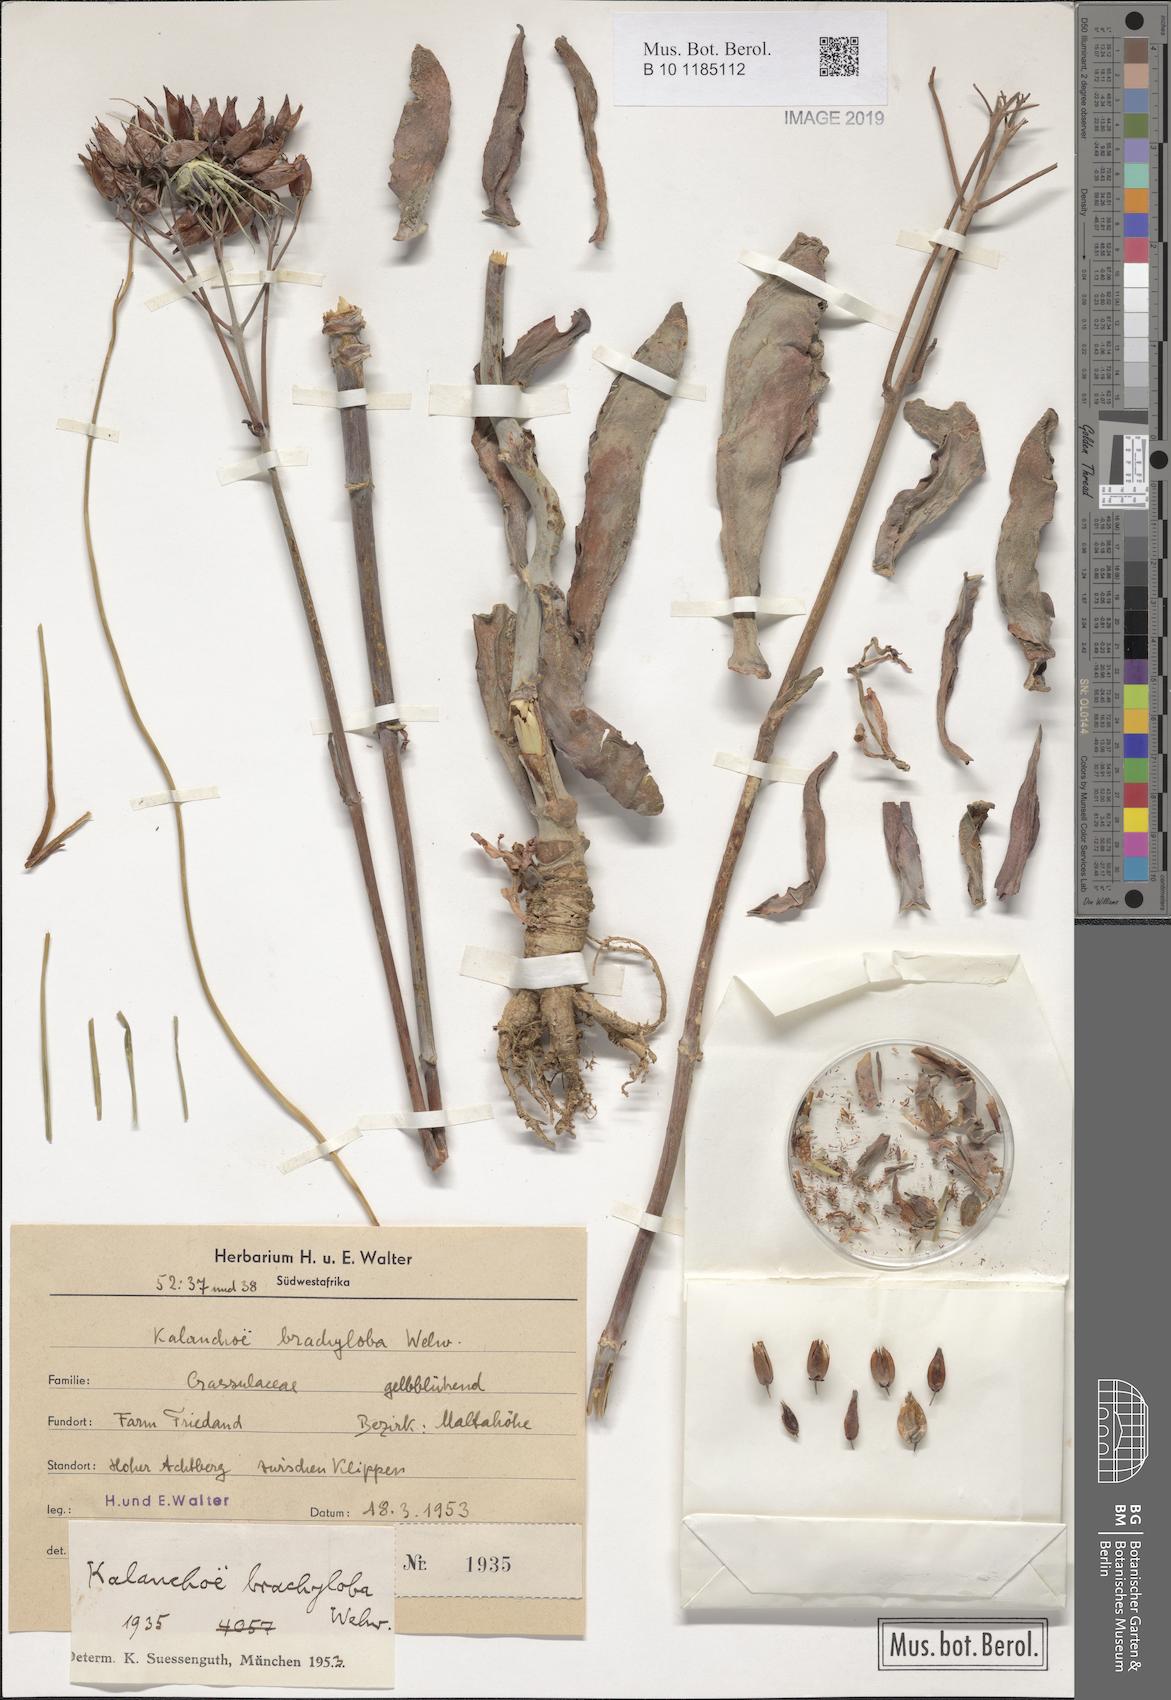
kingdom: Plantae
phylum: Tracheophyta
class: Magnoliopsida
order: Saxifragales
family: Crassulaceae
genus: Kalanchoe
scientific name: Kalanchoe brachyloba
